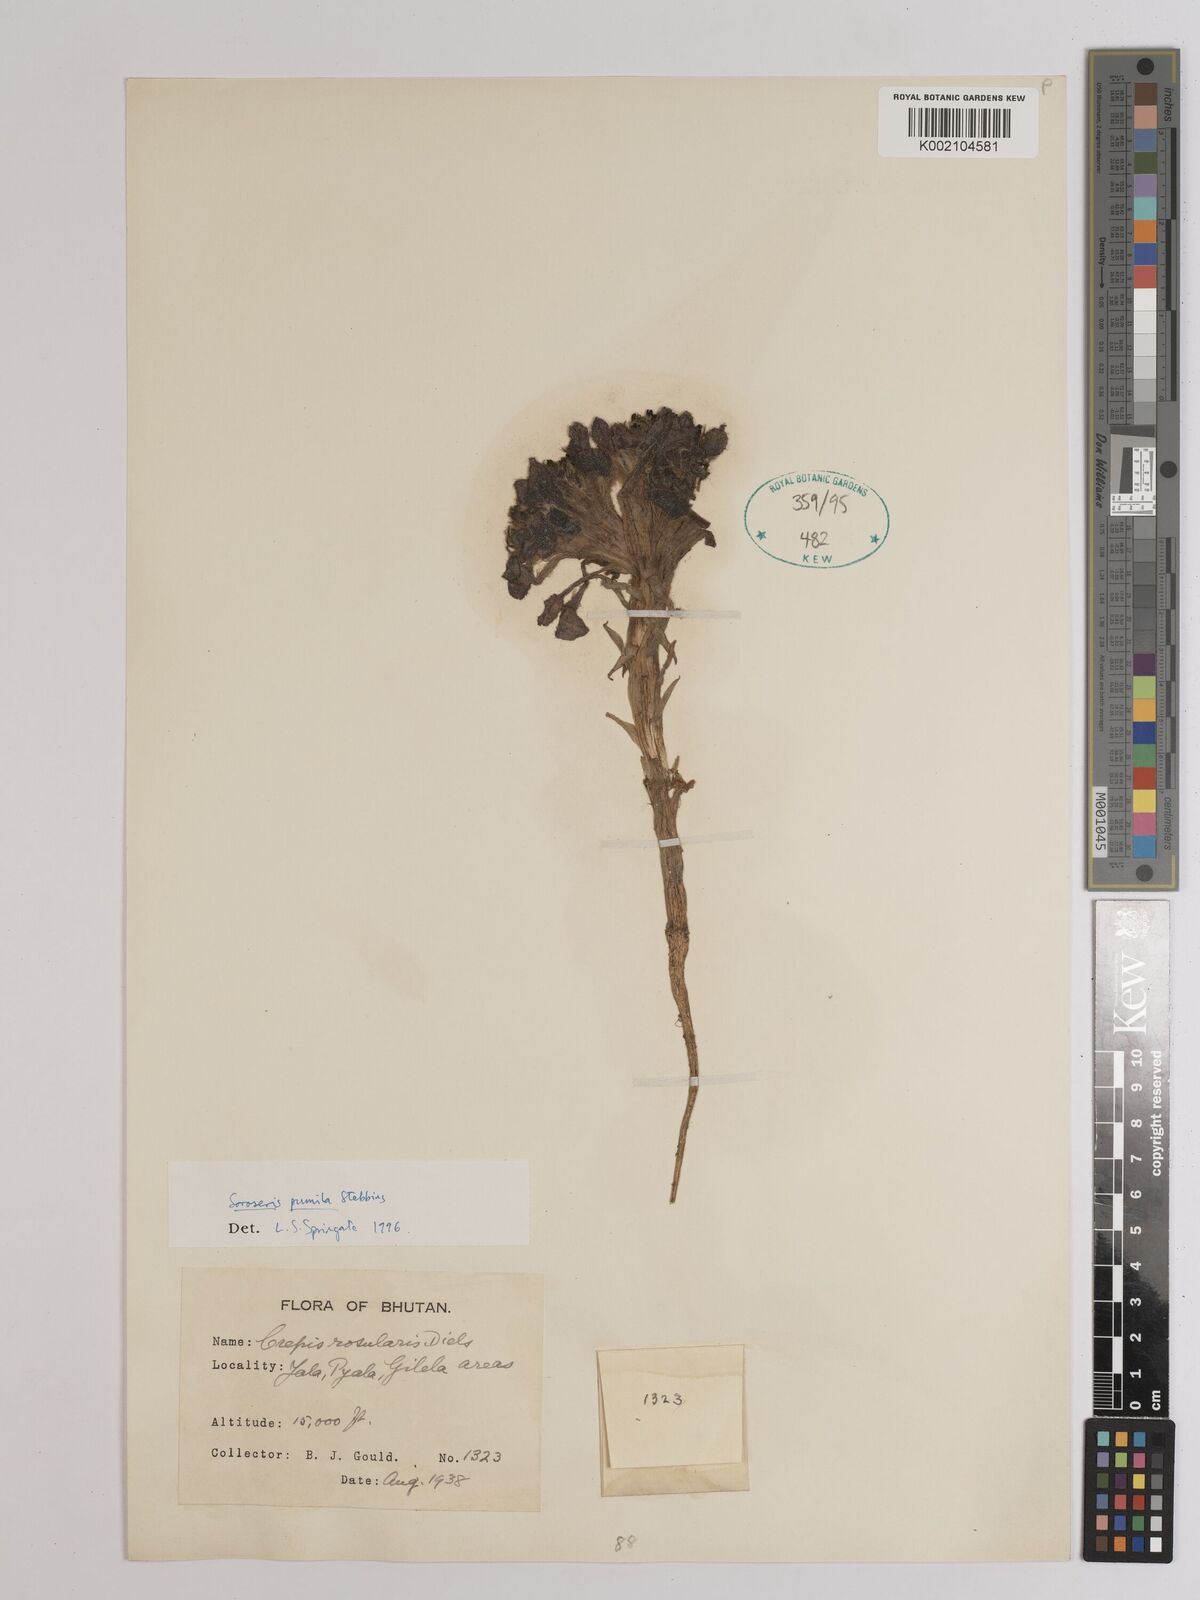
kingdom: Plantae
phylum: Tracheophyta
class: Magnoliopsida
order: Asterales
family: Asteraceae
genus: Soroseris
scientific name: Soroseris pumila
